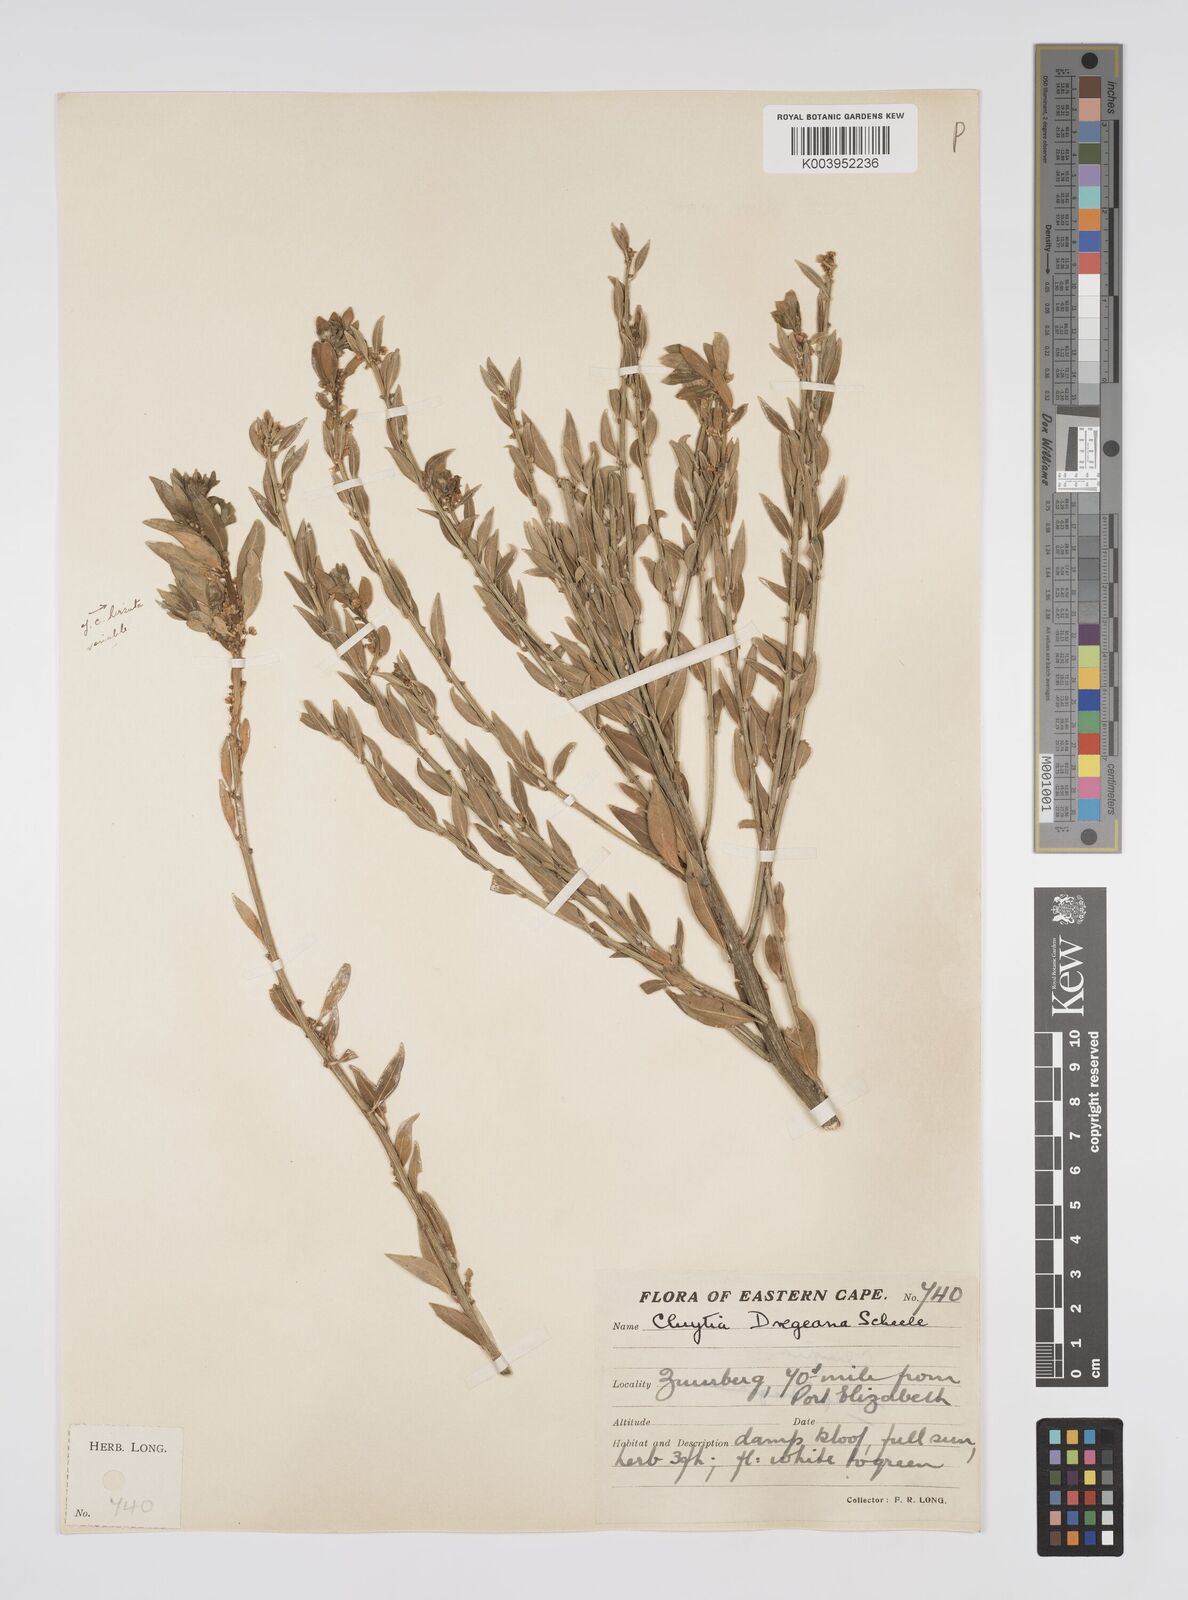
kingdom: Plantae
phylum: Tracheophyta
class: Magnoliopsida
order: Malpighiales
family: Peraceae
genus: Clutia
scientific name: Clutia dregeana
